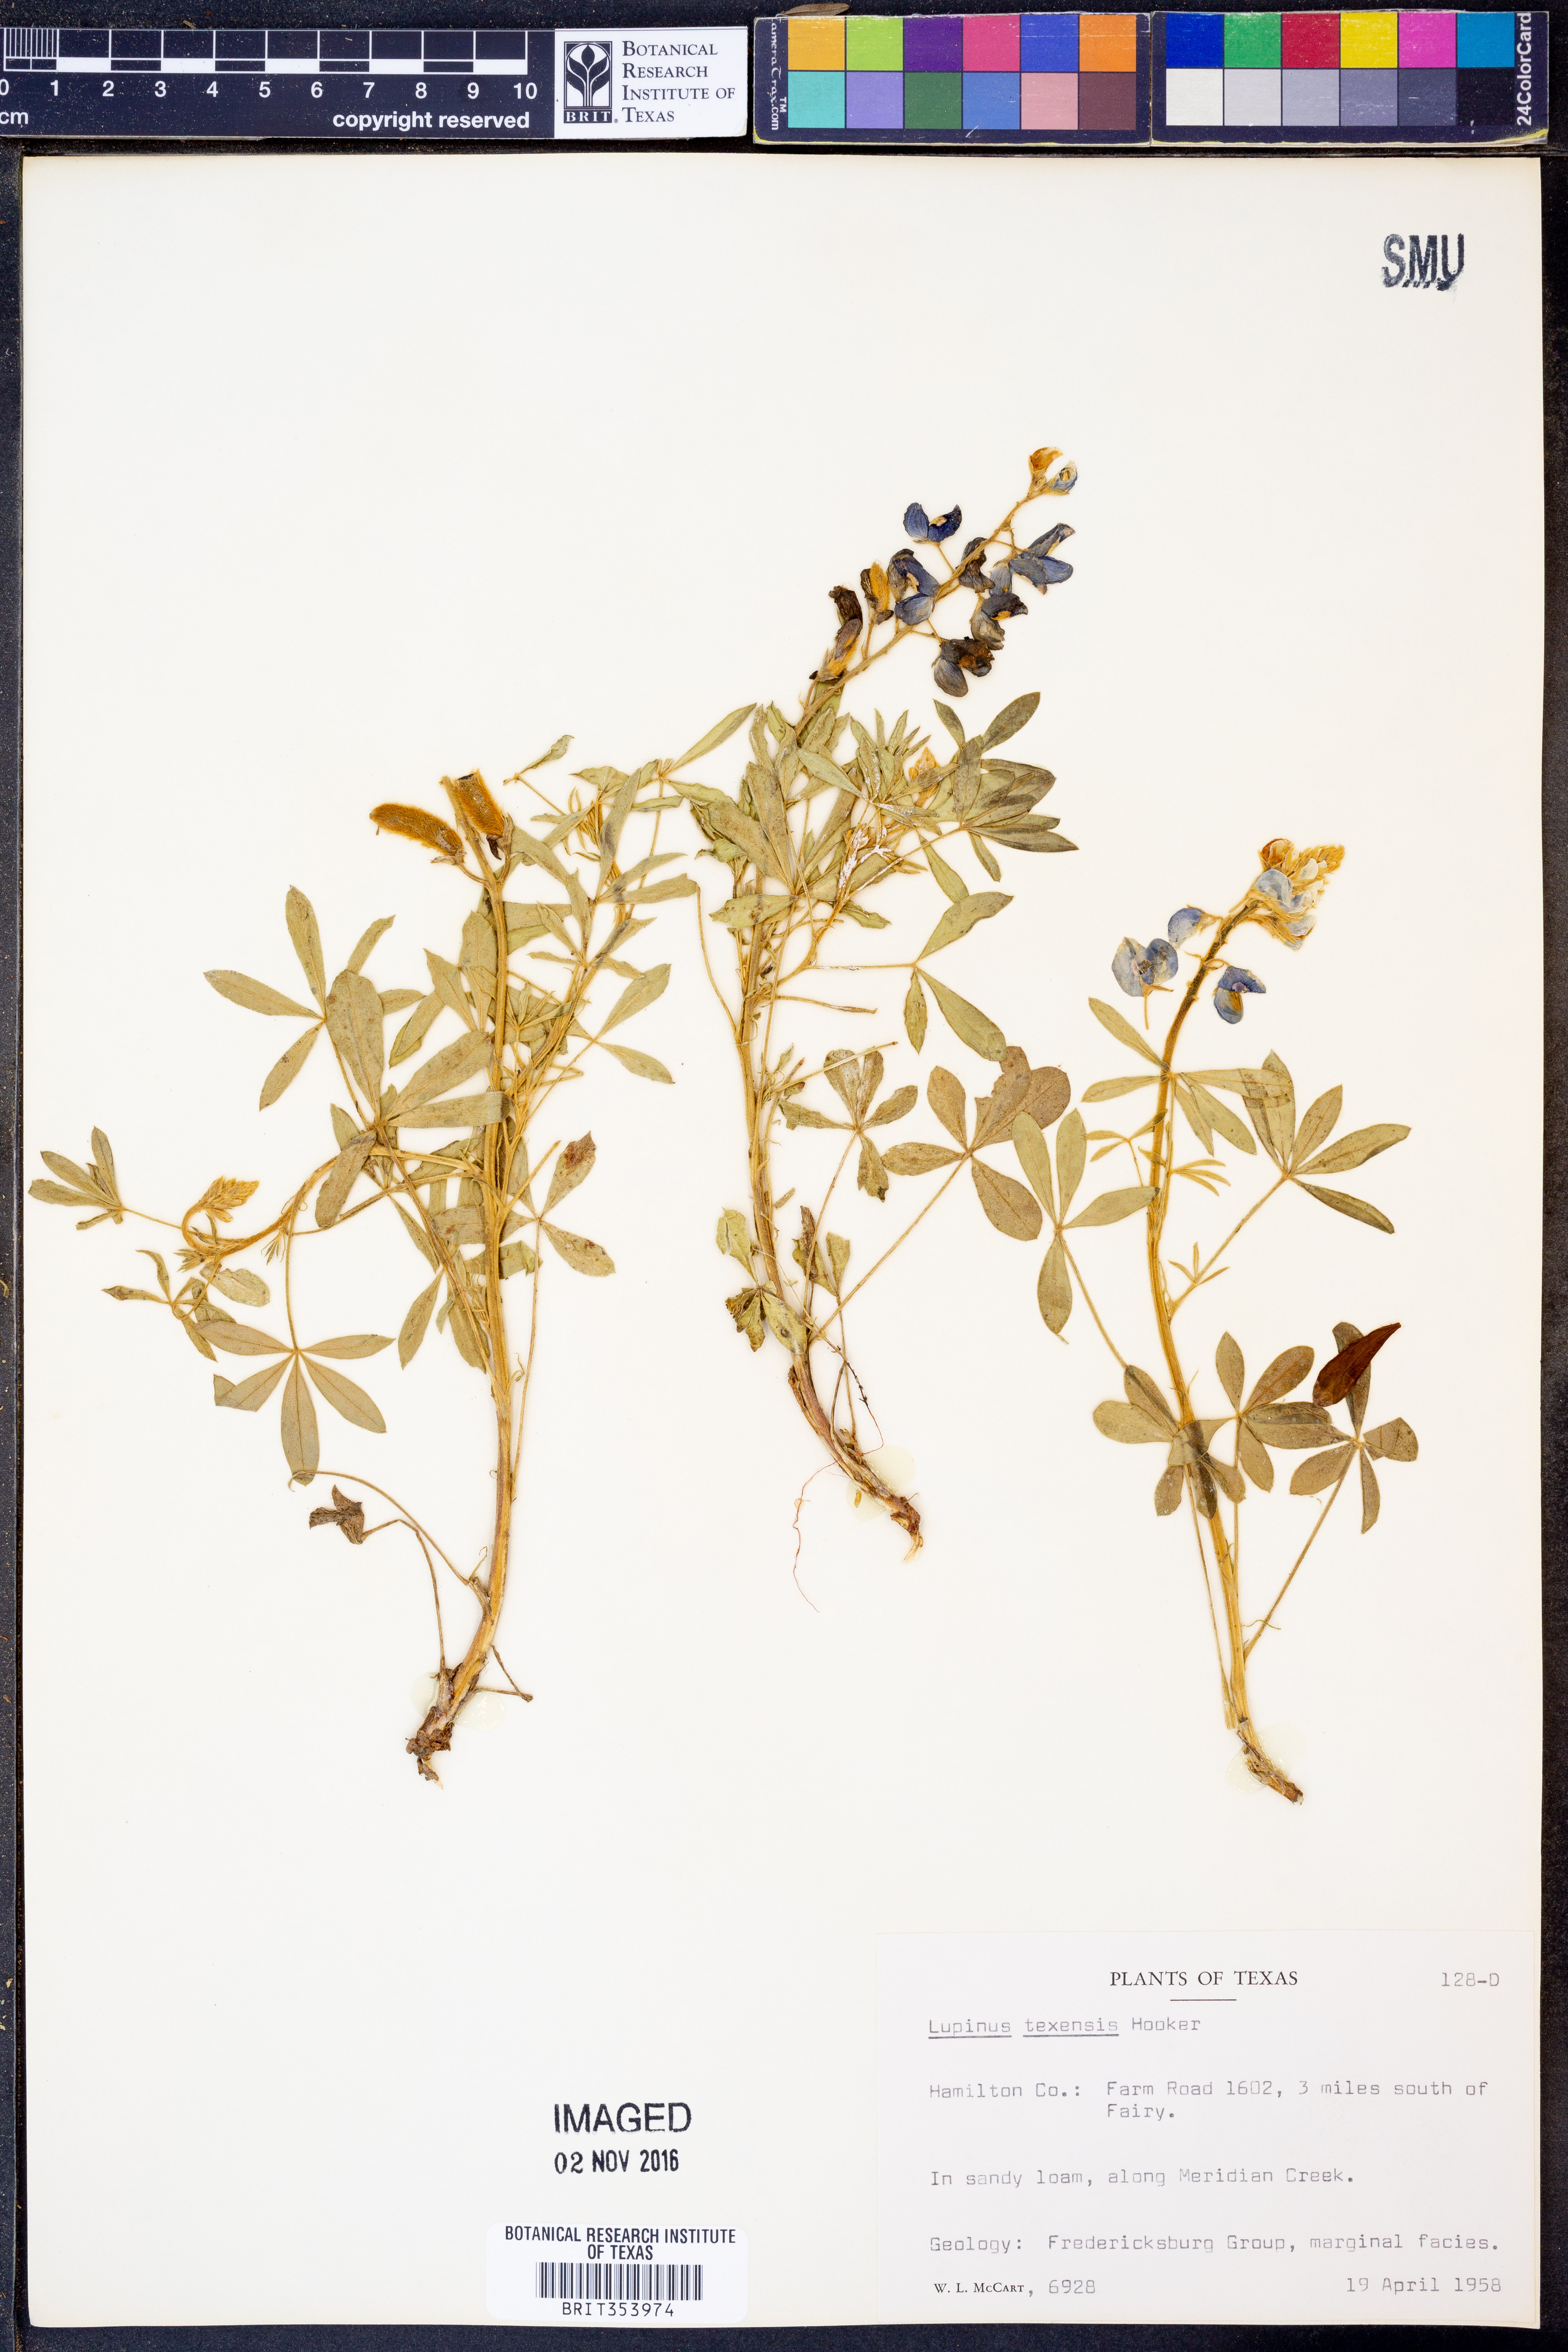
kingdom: Plantae
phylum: Tracheophyta
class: Magnoliopsida
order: Fabales
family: Fabaceae
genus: Lupinus
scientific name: Lupinus texensis
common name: Texas bluebonnet
